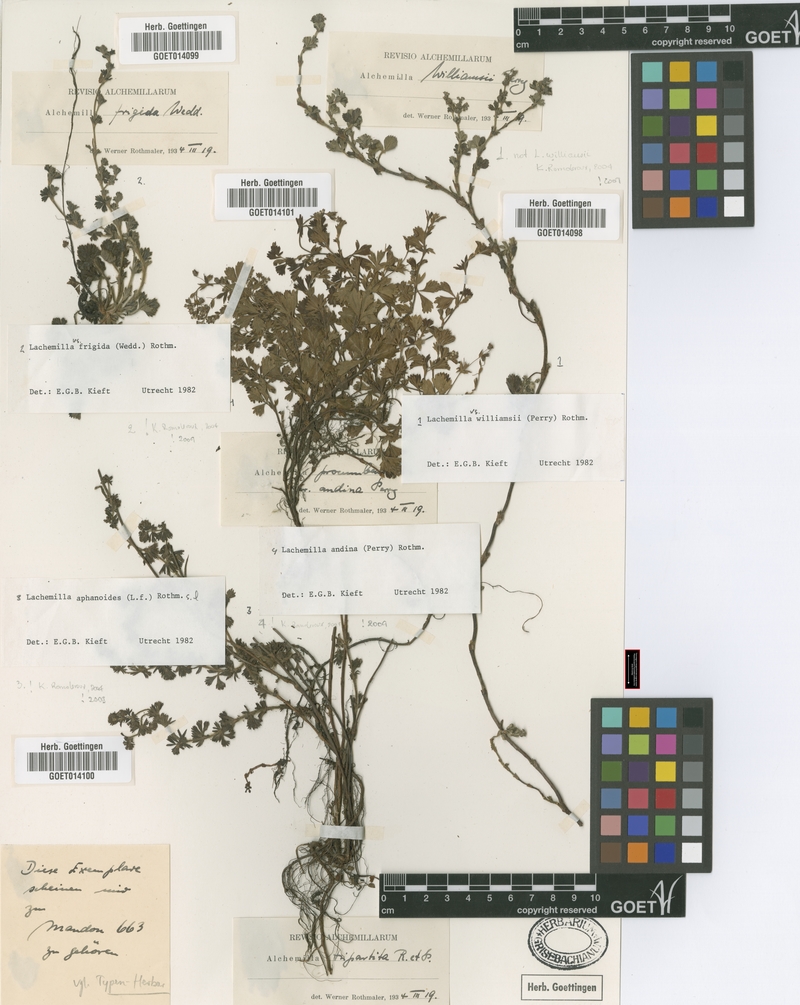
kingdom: Plantae
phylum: Tracheophyta
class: Magnoliopsida
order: Rosales
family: Rosaceae
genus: Lachemilla
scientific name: Lachemilla aphanoides
